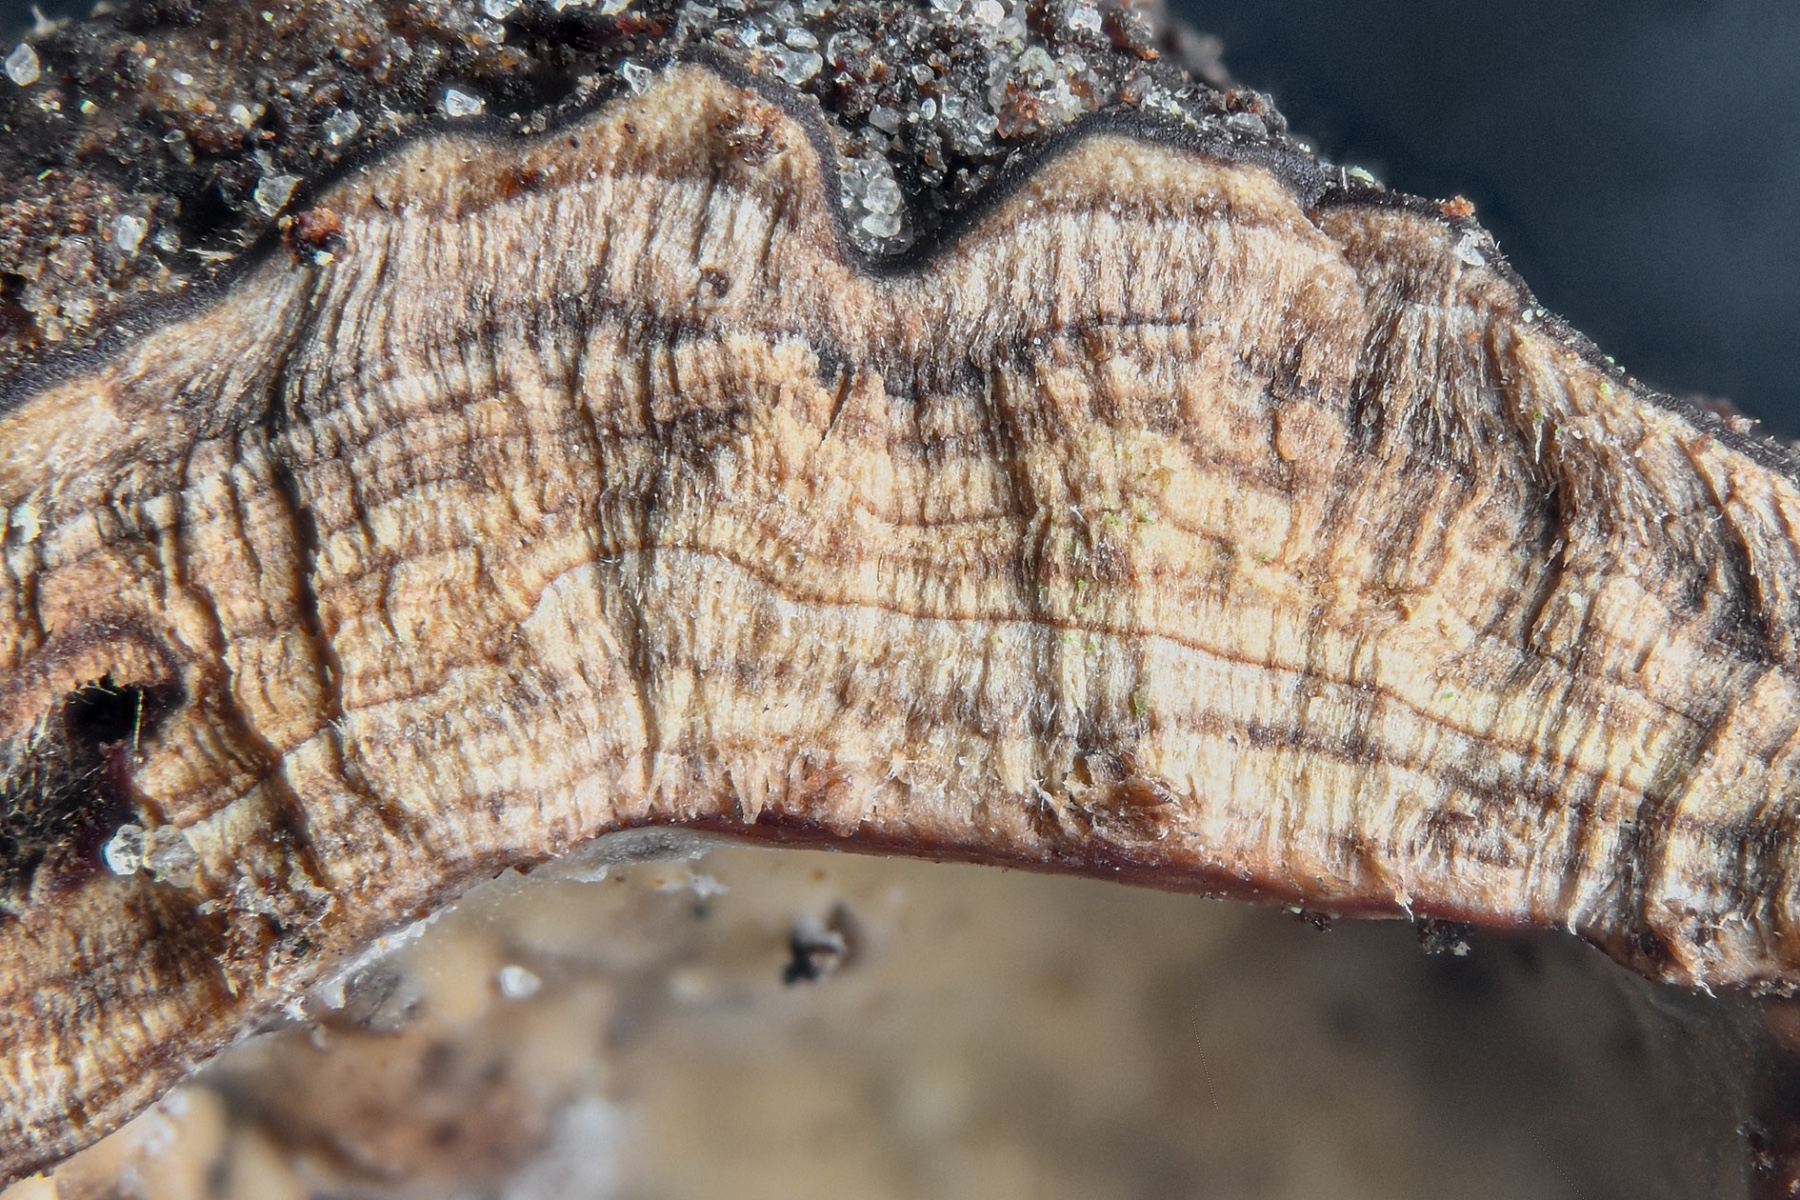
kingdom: Fungi
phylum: Basidiomycota
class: Agaricomycetes
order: Russulales
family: Stereaceae
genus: Stereum
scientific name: Stereum rugosum
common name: rynket lædersvamp
